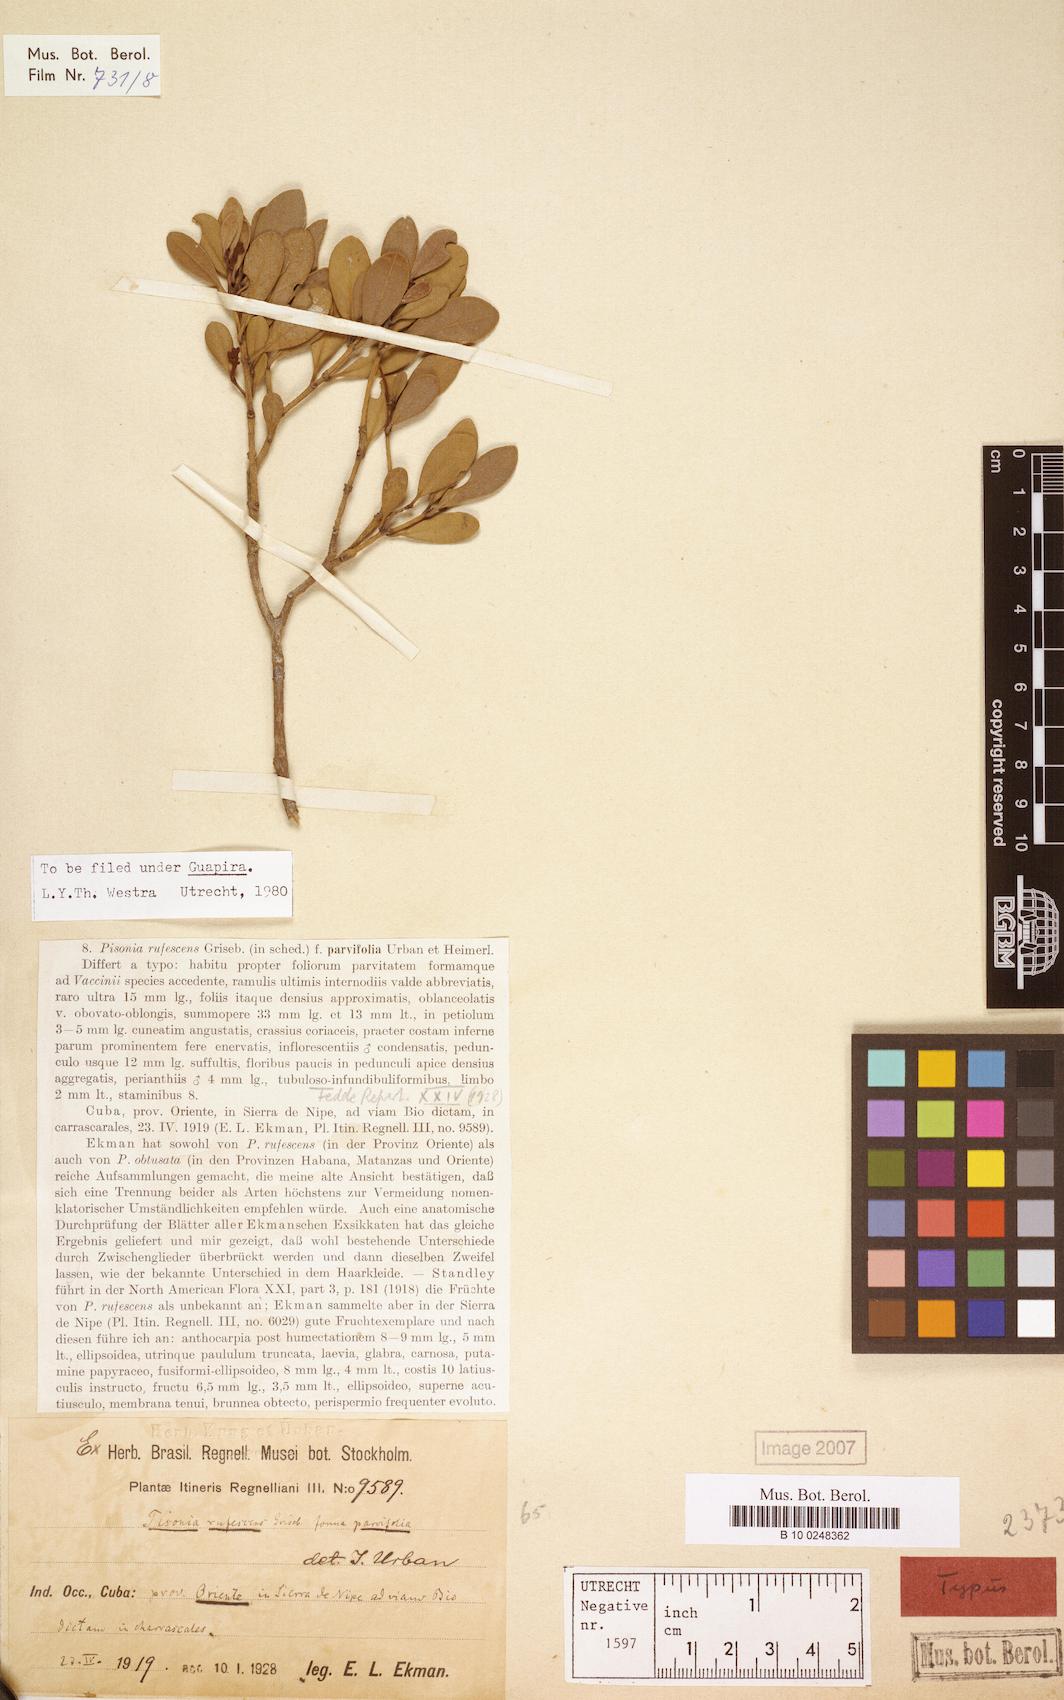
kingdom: Plantae
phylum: Tracheophyta
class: Magnoliopsida
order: Caryophyllales
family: Nyctaginaceae
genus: Guapira
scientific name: Guapira rufescens
